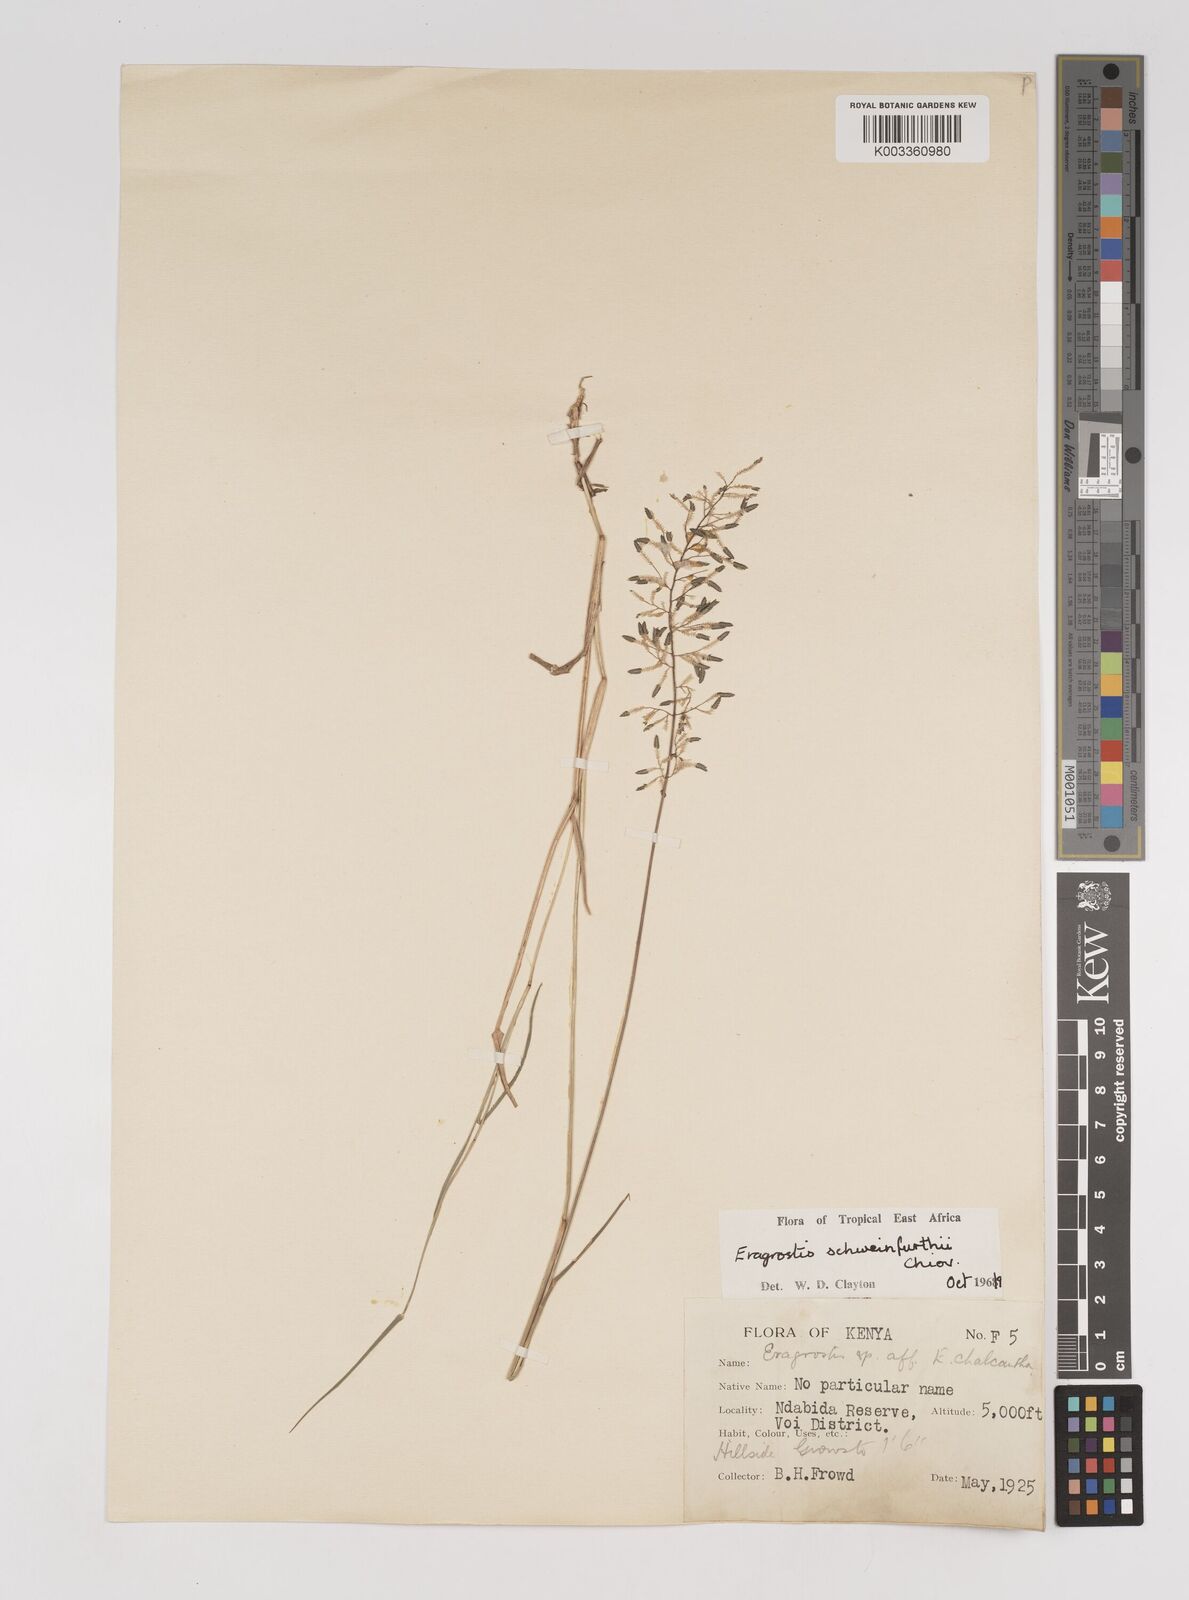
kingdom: Plantae
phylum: Tracheophyta
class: Liliopsida
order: Poales
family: Poaceae
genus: Eragrostis
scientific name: Eragrostis schweinfurthii
